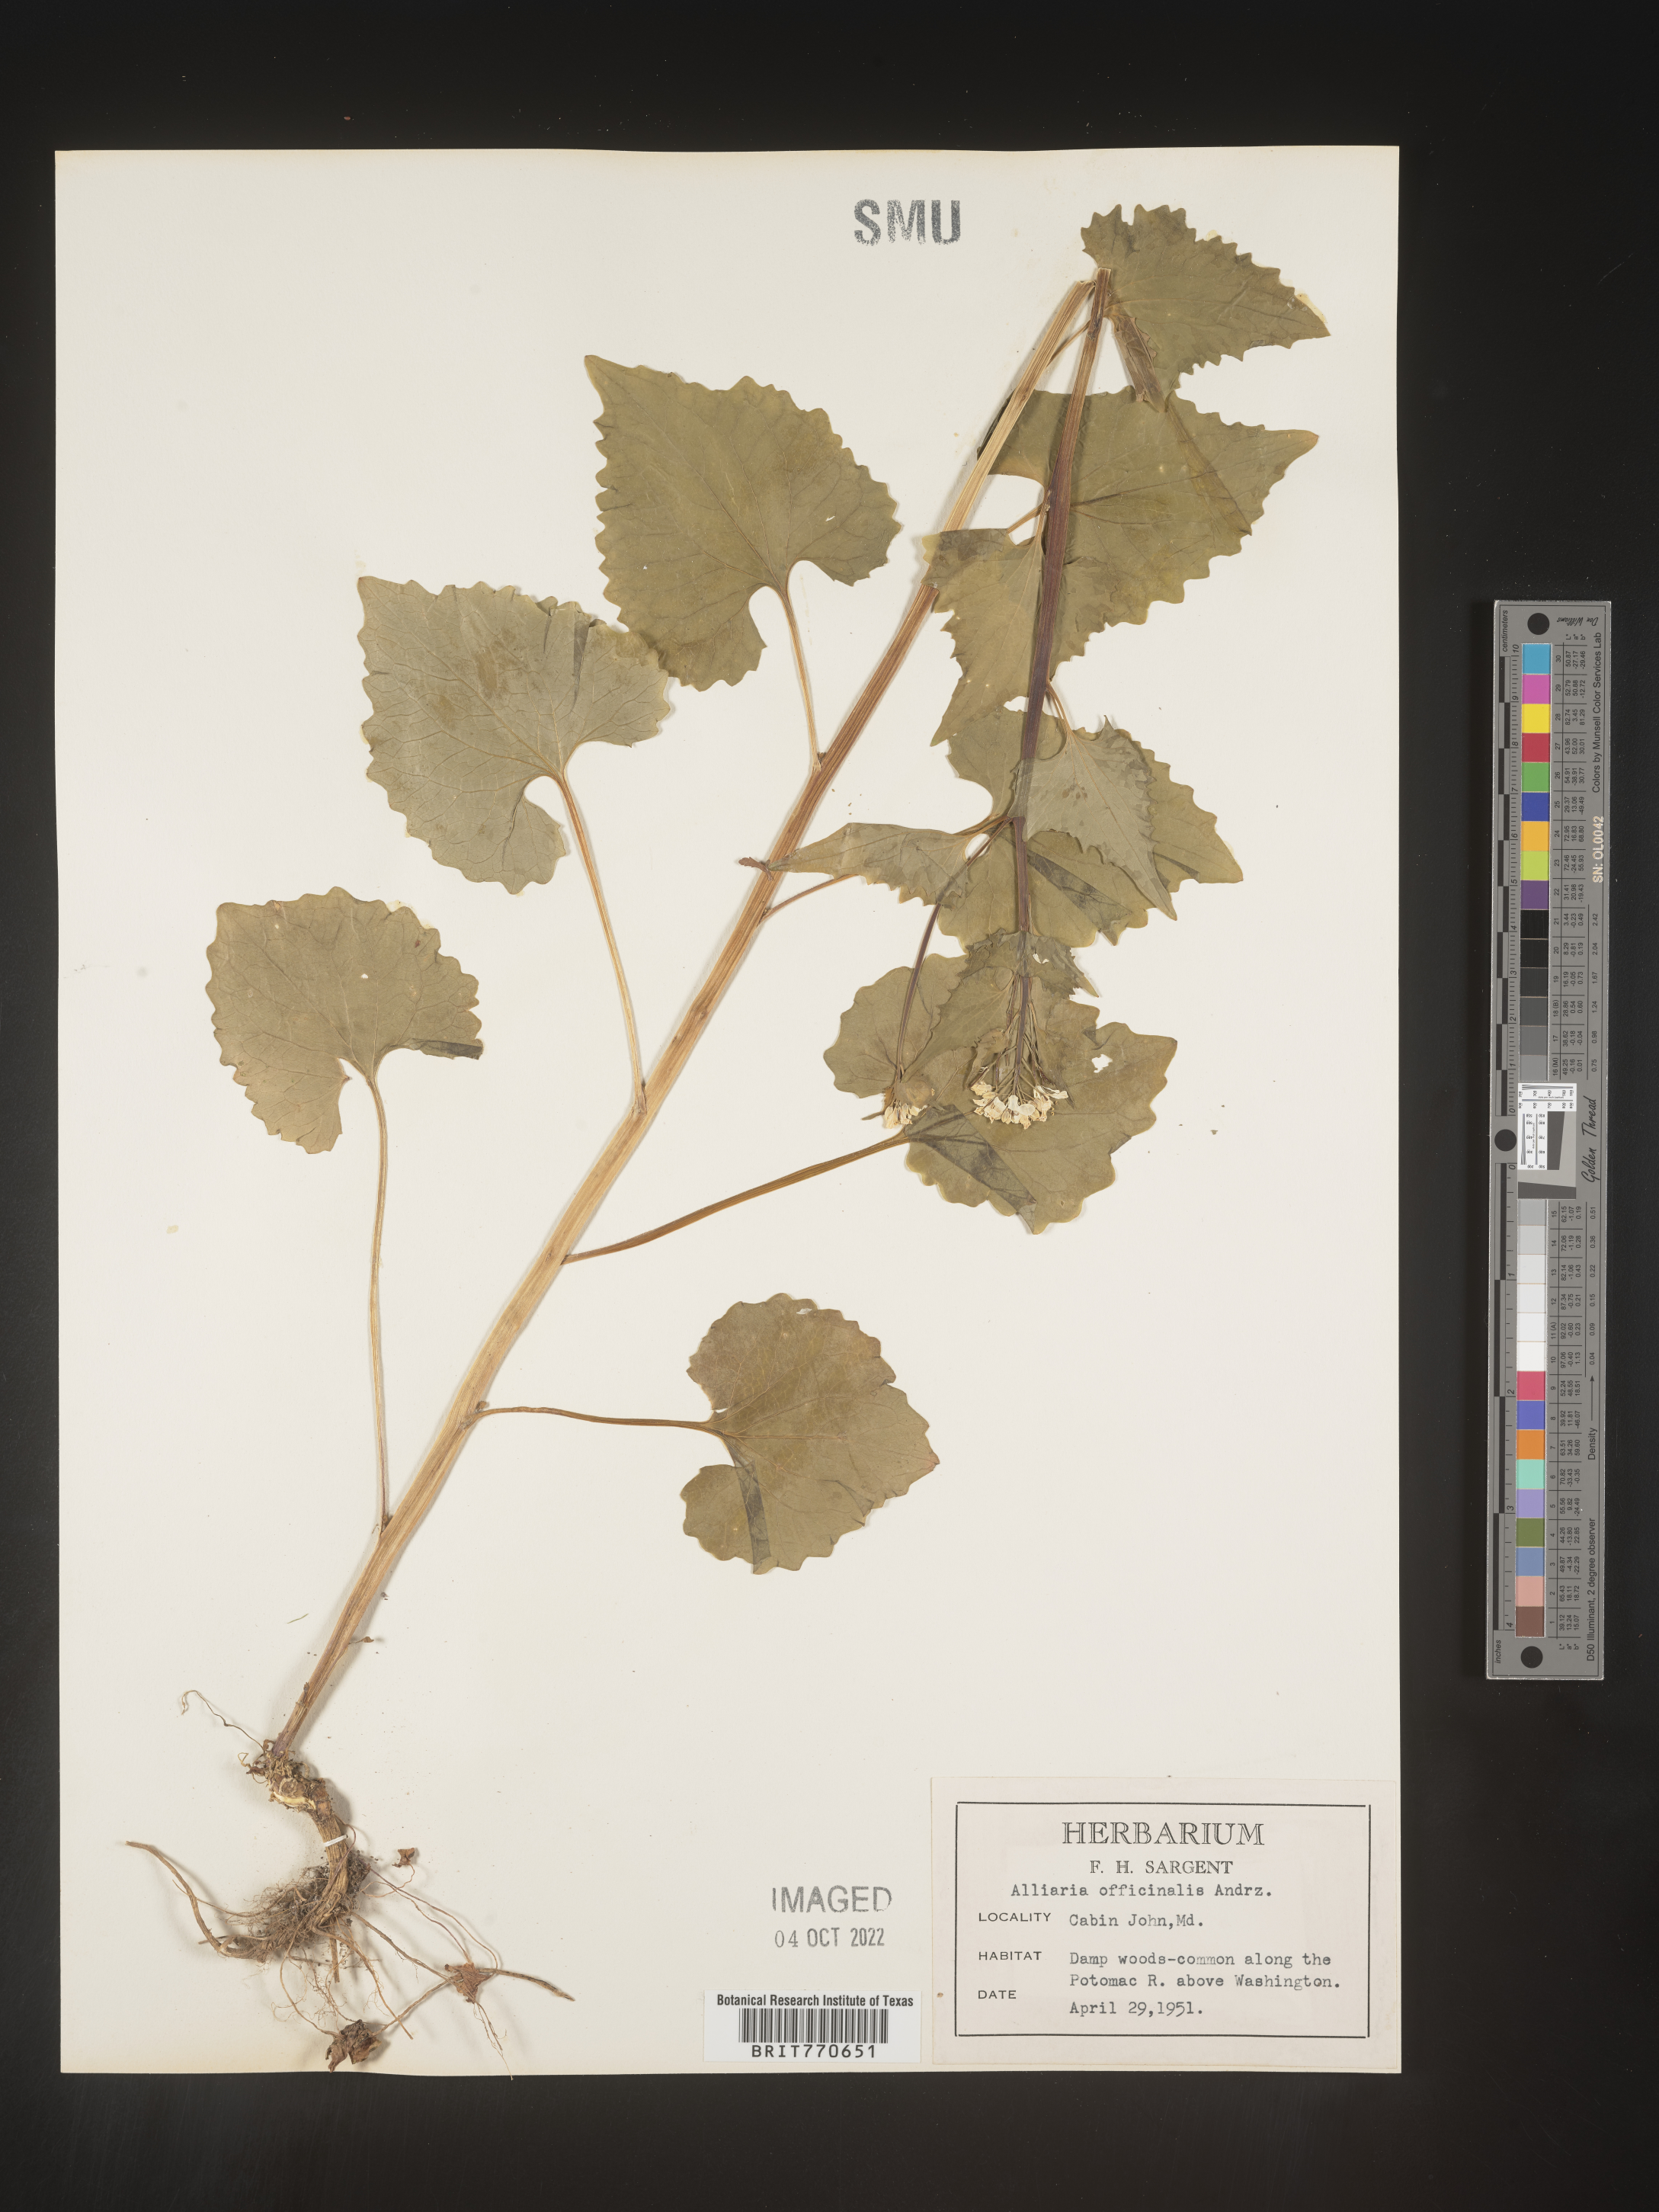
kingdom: Plantae
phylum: Tracheophyta
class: Magnoliopsida
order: Brassicales
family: Brassicaceae
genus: Alliaria
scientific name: Alliaria
